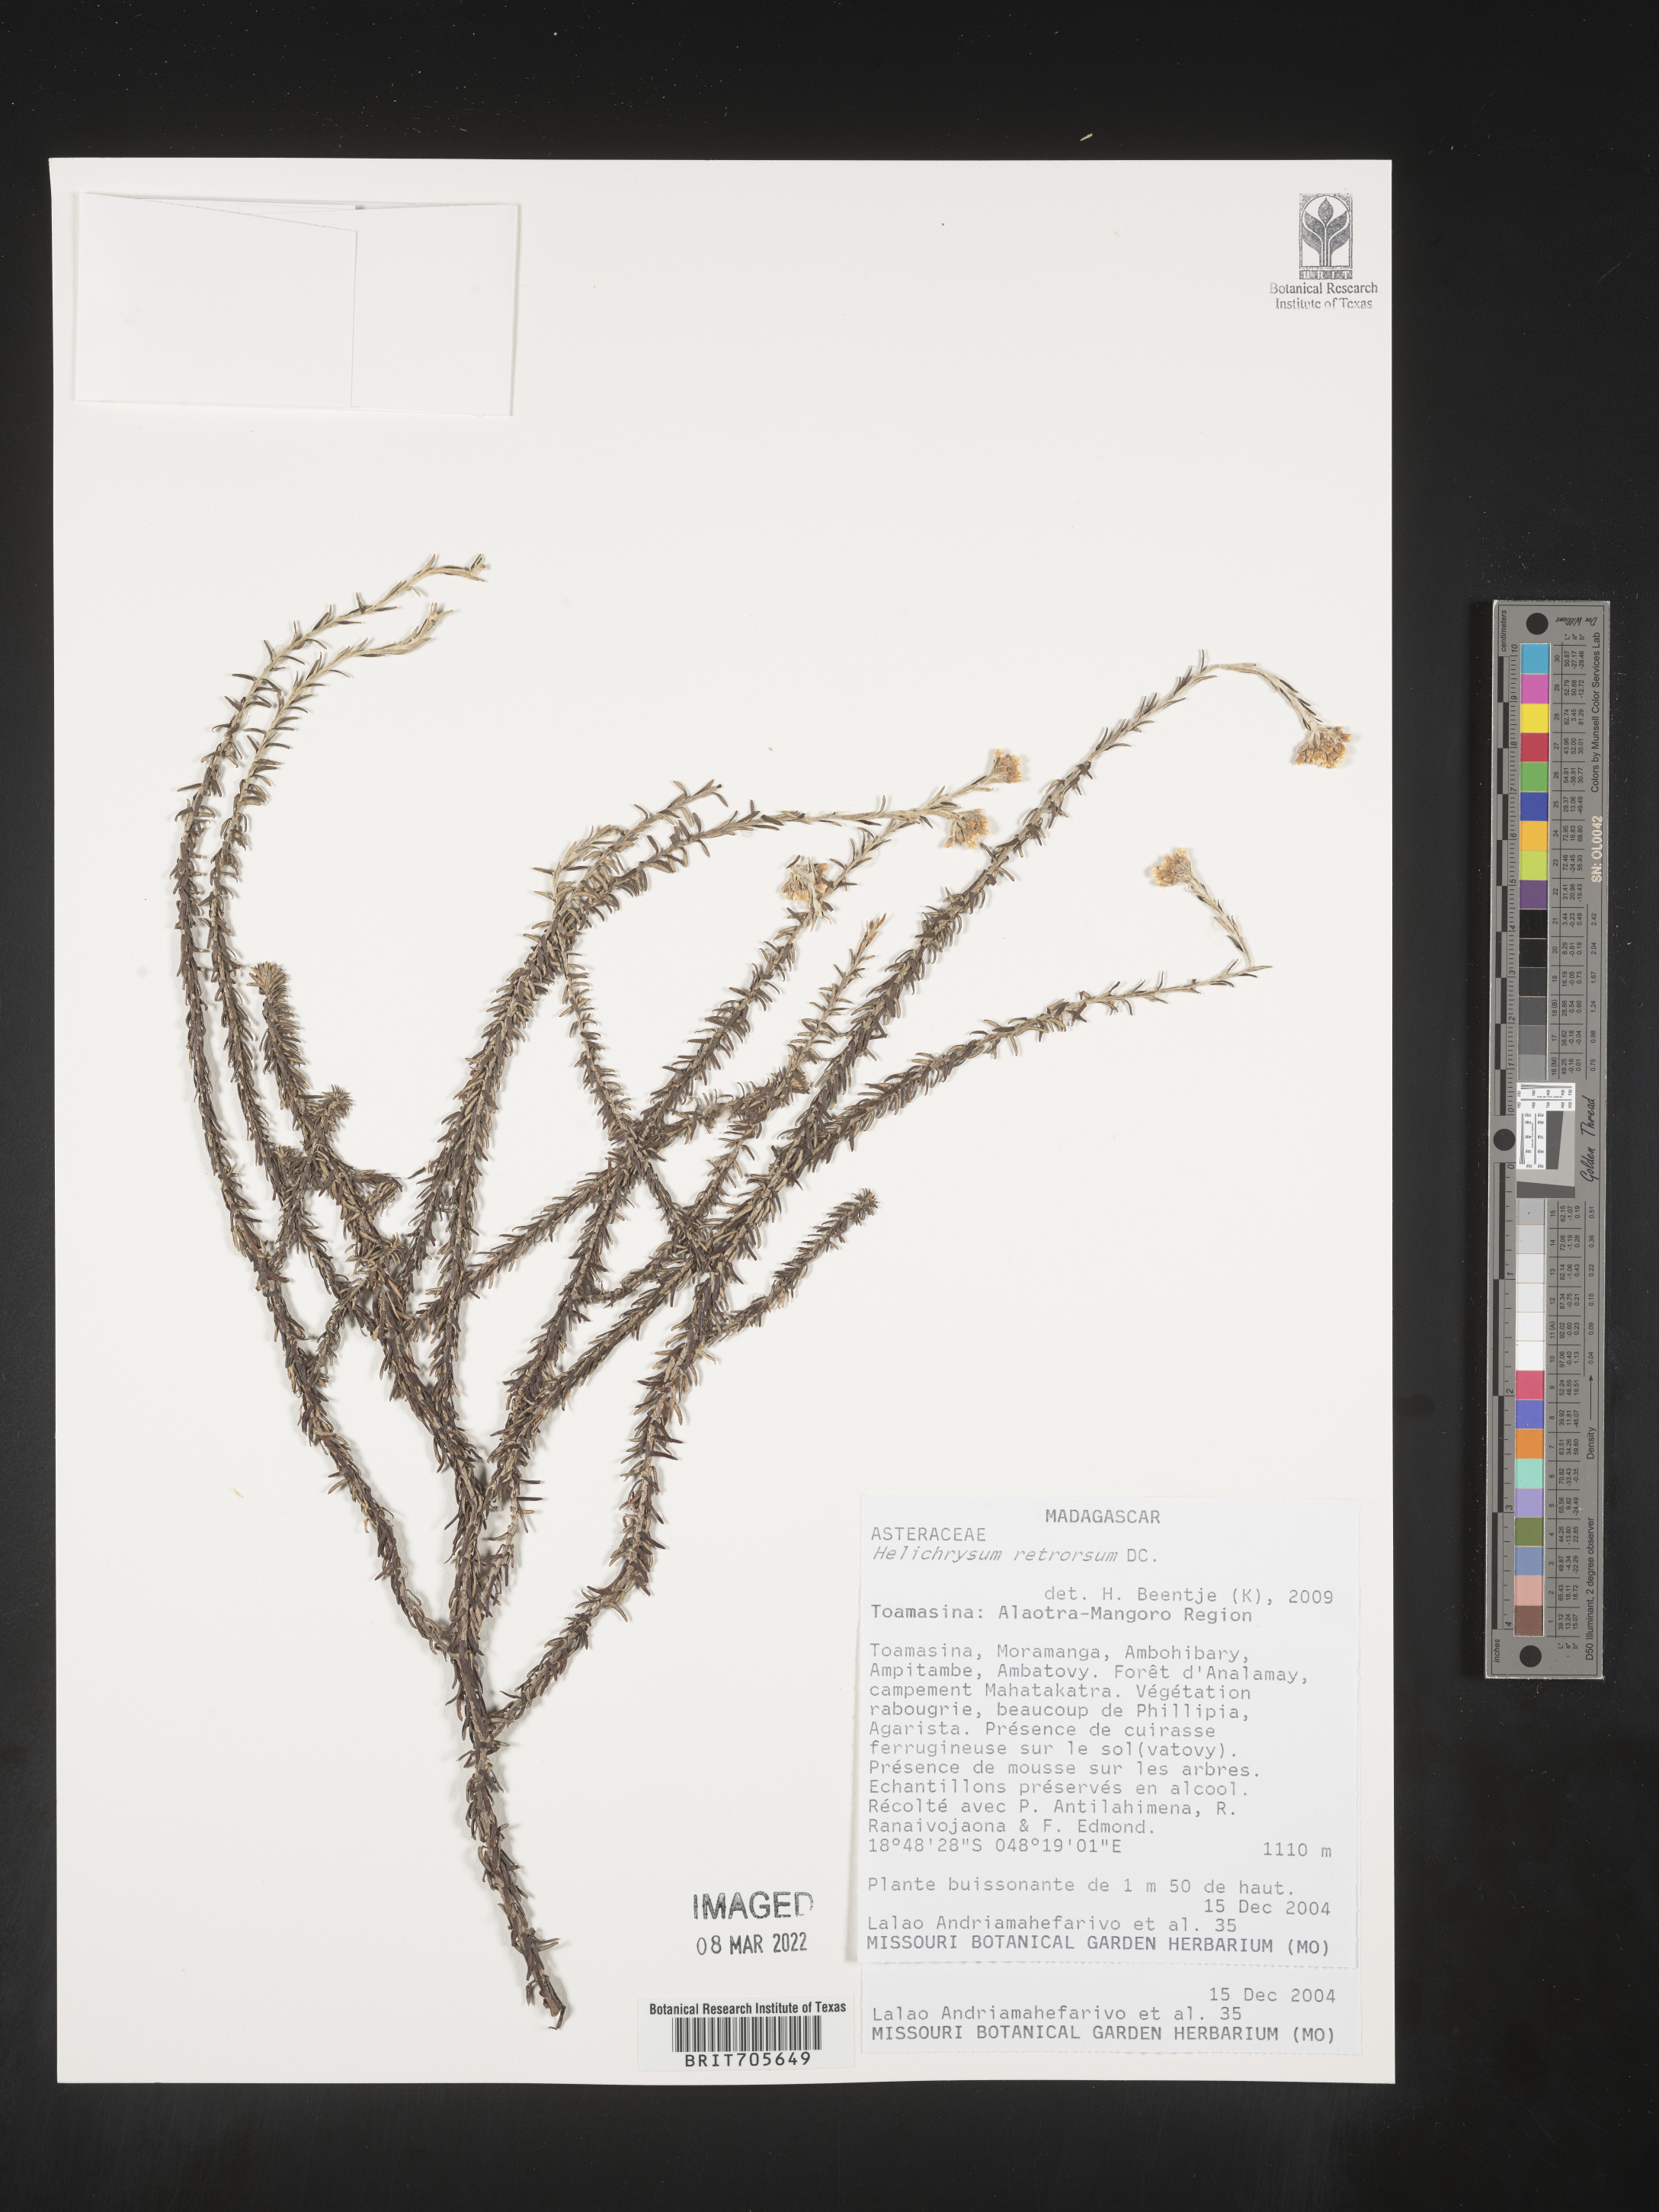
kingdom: Plantae
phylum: Tracheophyta
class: Magnoliopsida
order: Asterales
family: Asteraceae
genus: Helichrysum
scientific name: Helichrysum
